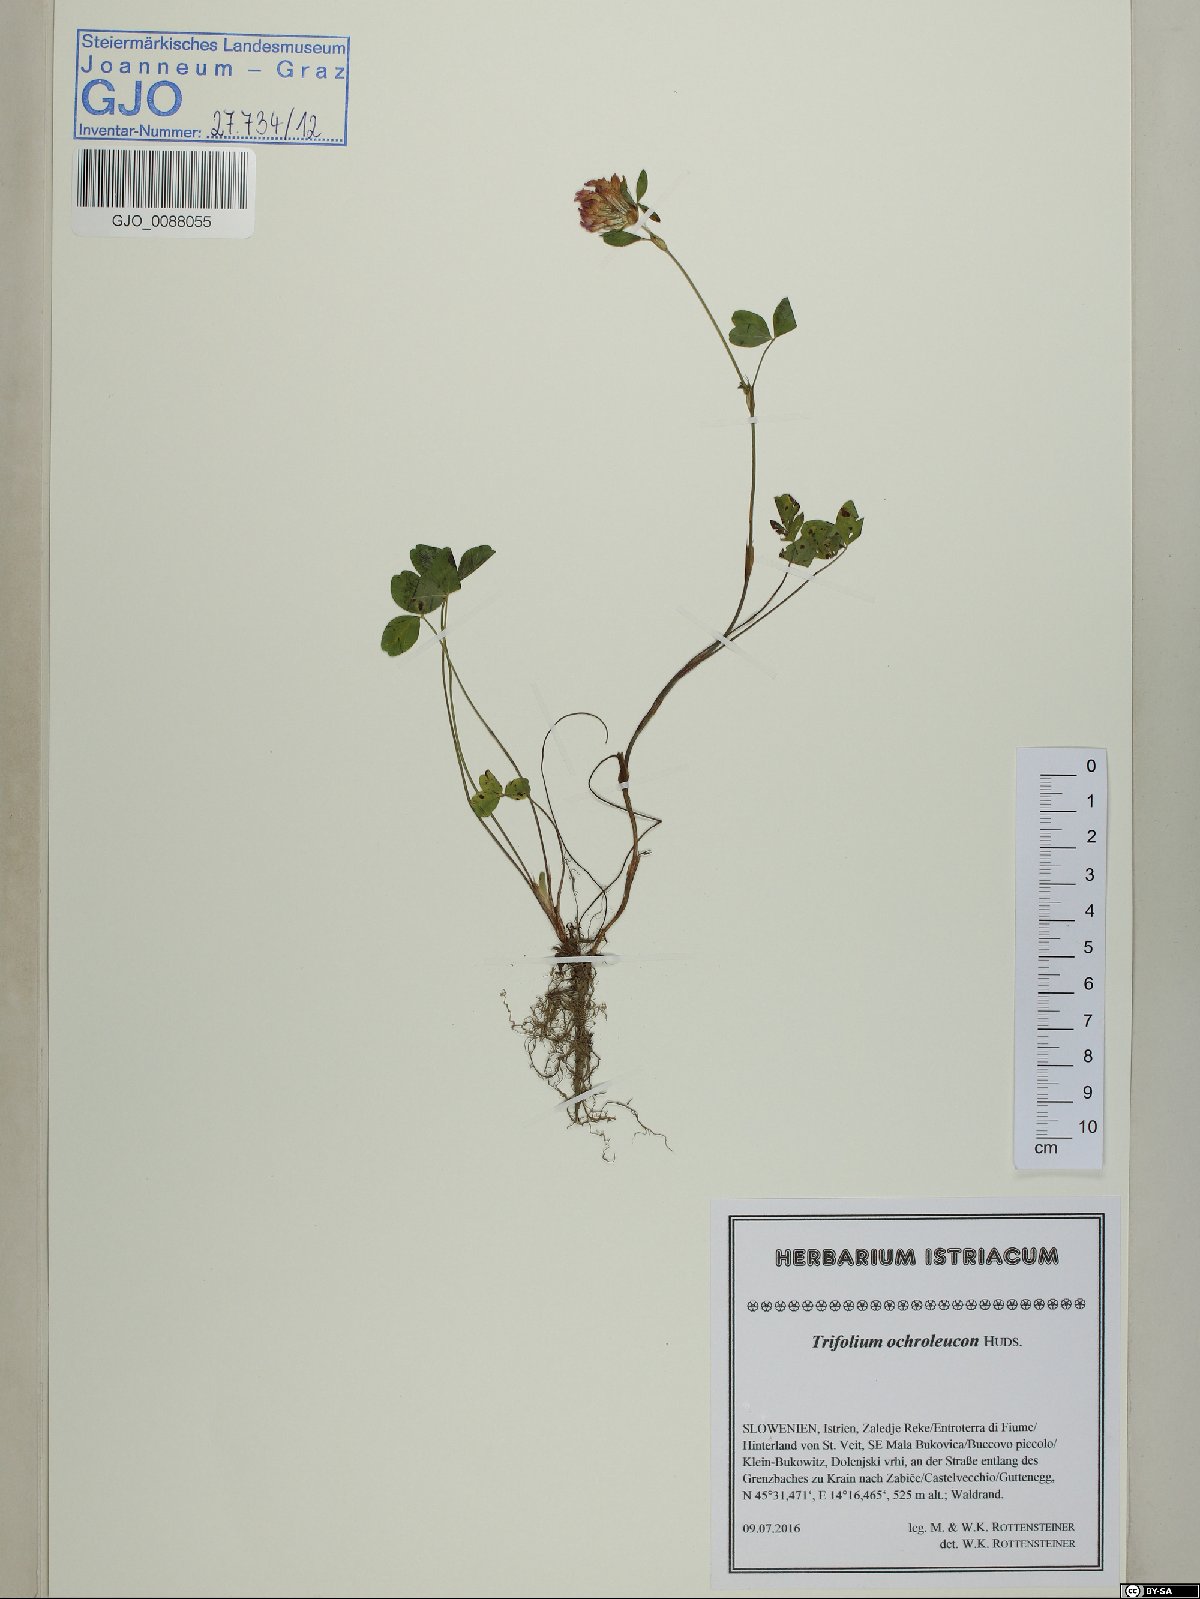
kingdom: Plantae
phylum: Tracheophyta
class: Magnoliopsida
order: Fabales
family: Fabaceae
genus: Trifolium
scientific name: Trifolium ochroleucon
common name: Sulphur clover
